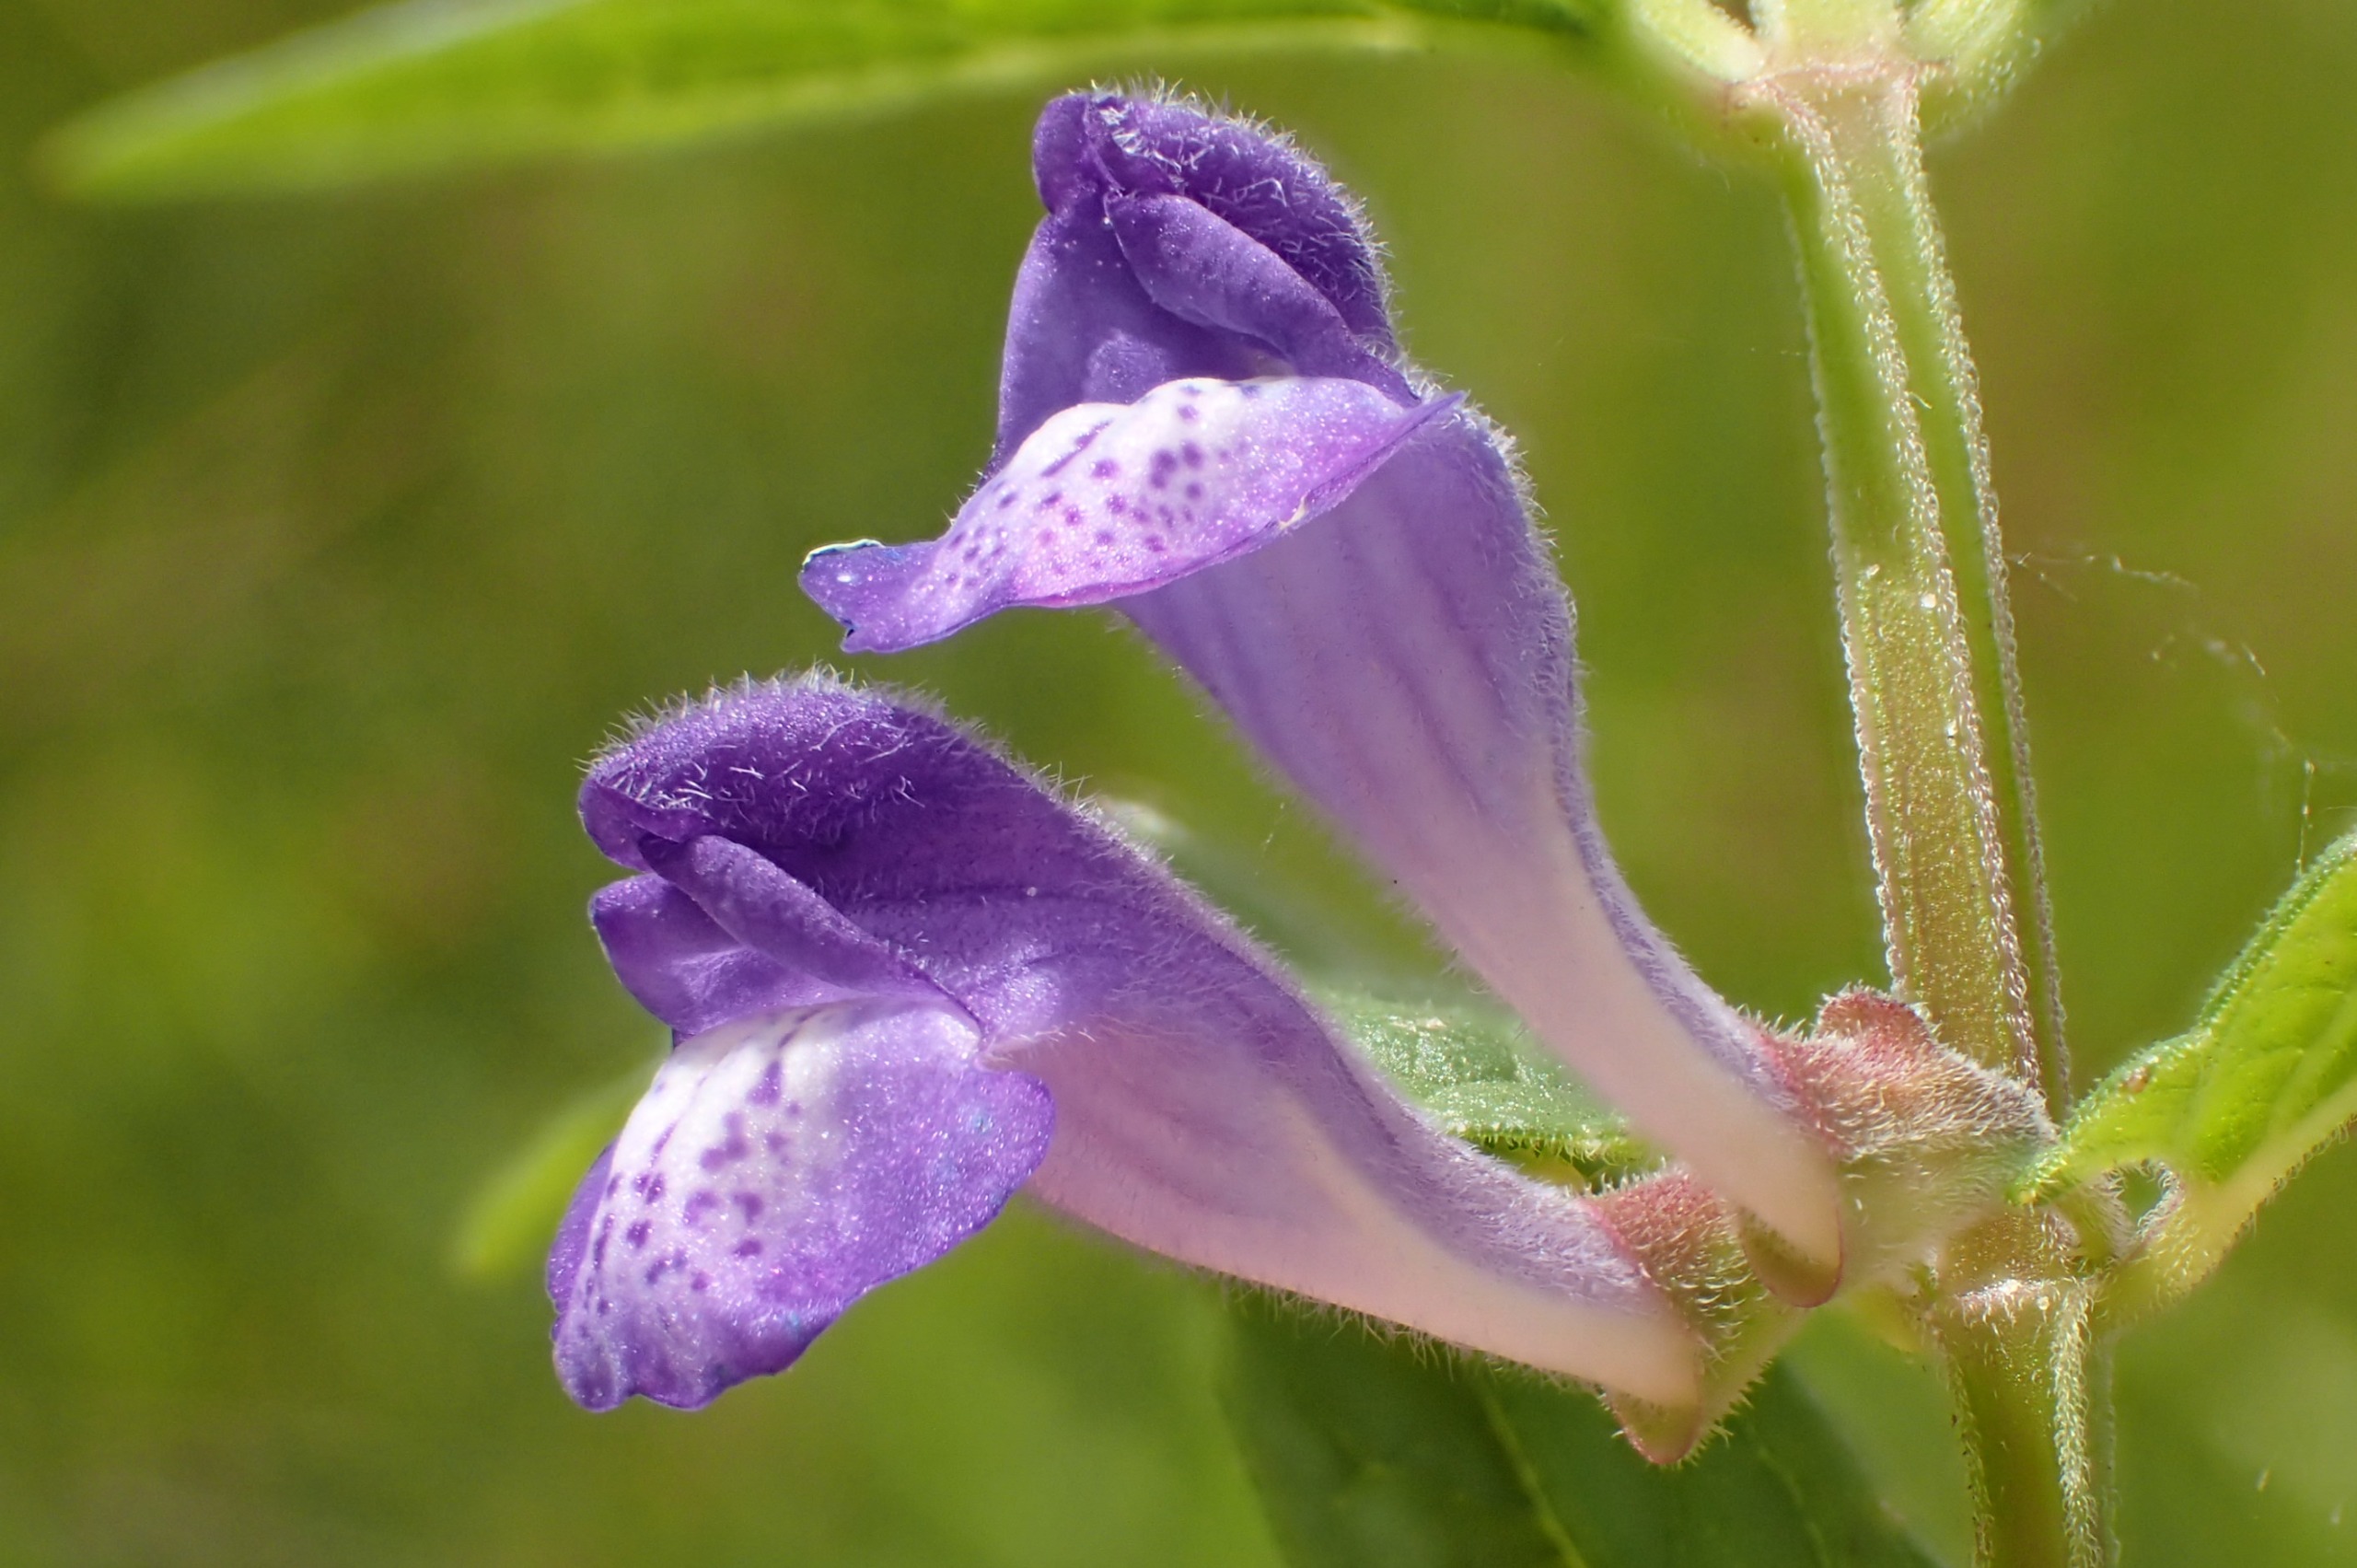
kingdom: Plantae
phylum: Tracheophyta
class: Magnoliopsida
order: Lamiales
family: Lamiaceae
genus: Scutellaria
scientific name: Scutellaria galericulata
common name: Almindelig skjolddrager
